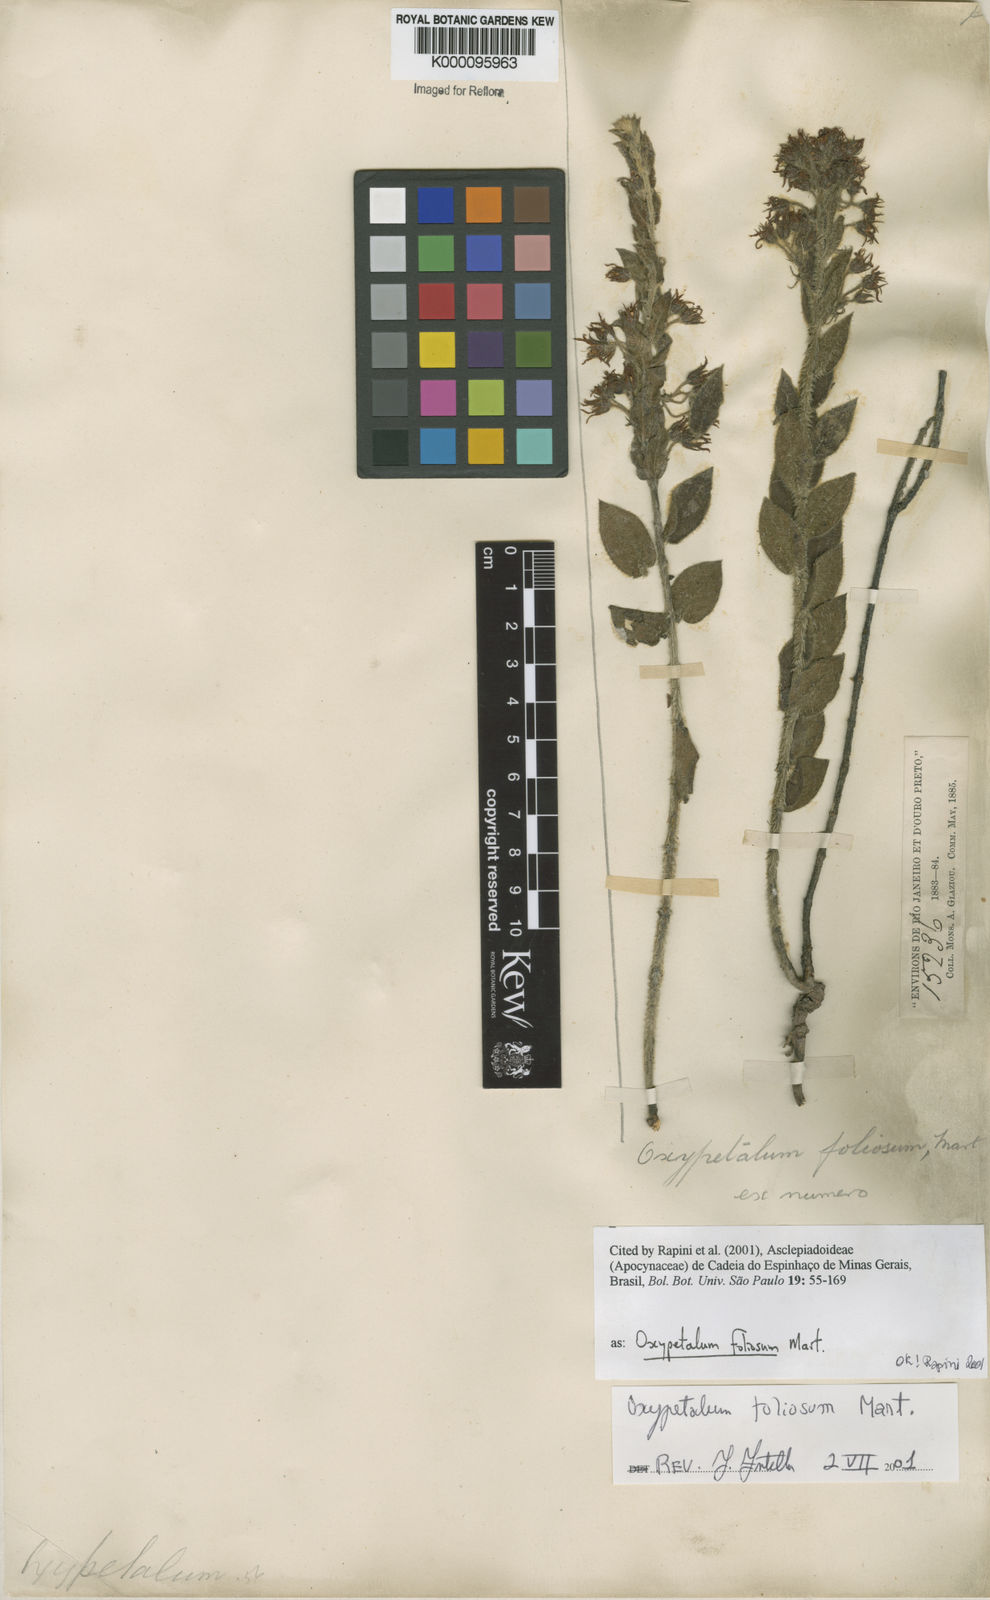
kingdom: Plantae
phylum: Tracheophyta
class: Magnoliopsida
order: Gentianales
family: Apocynaceae
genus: Oxypetalum
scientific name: Oxypetalum foliosum
